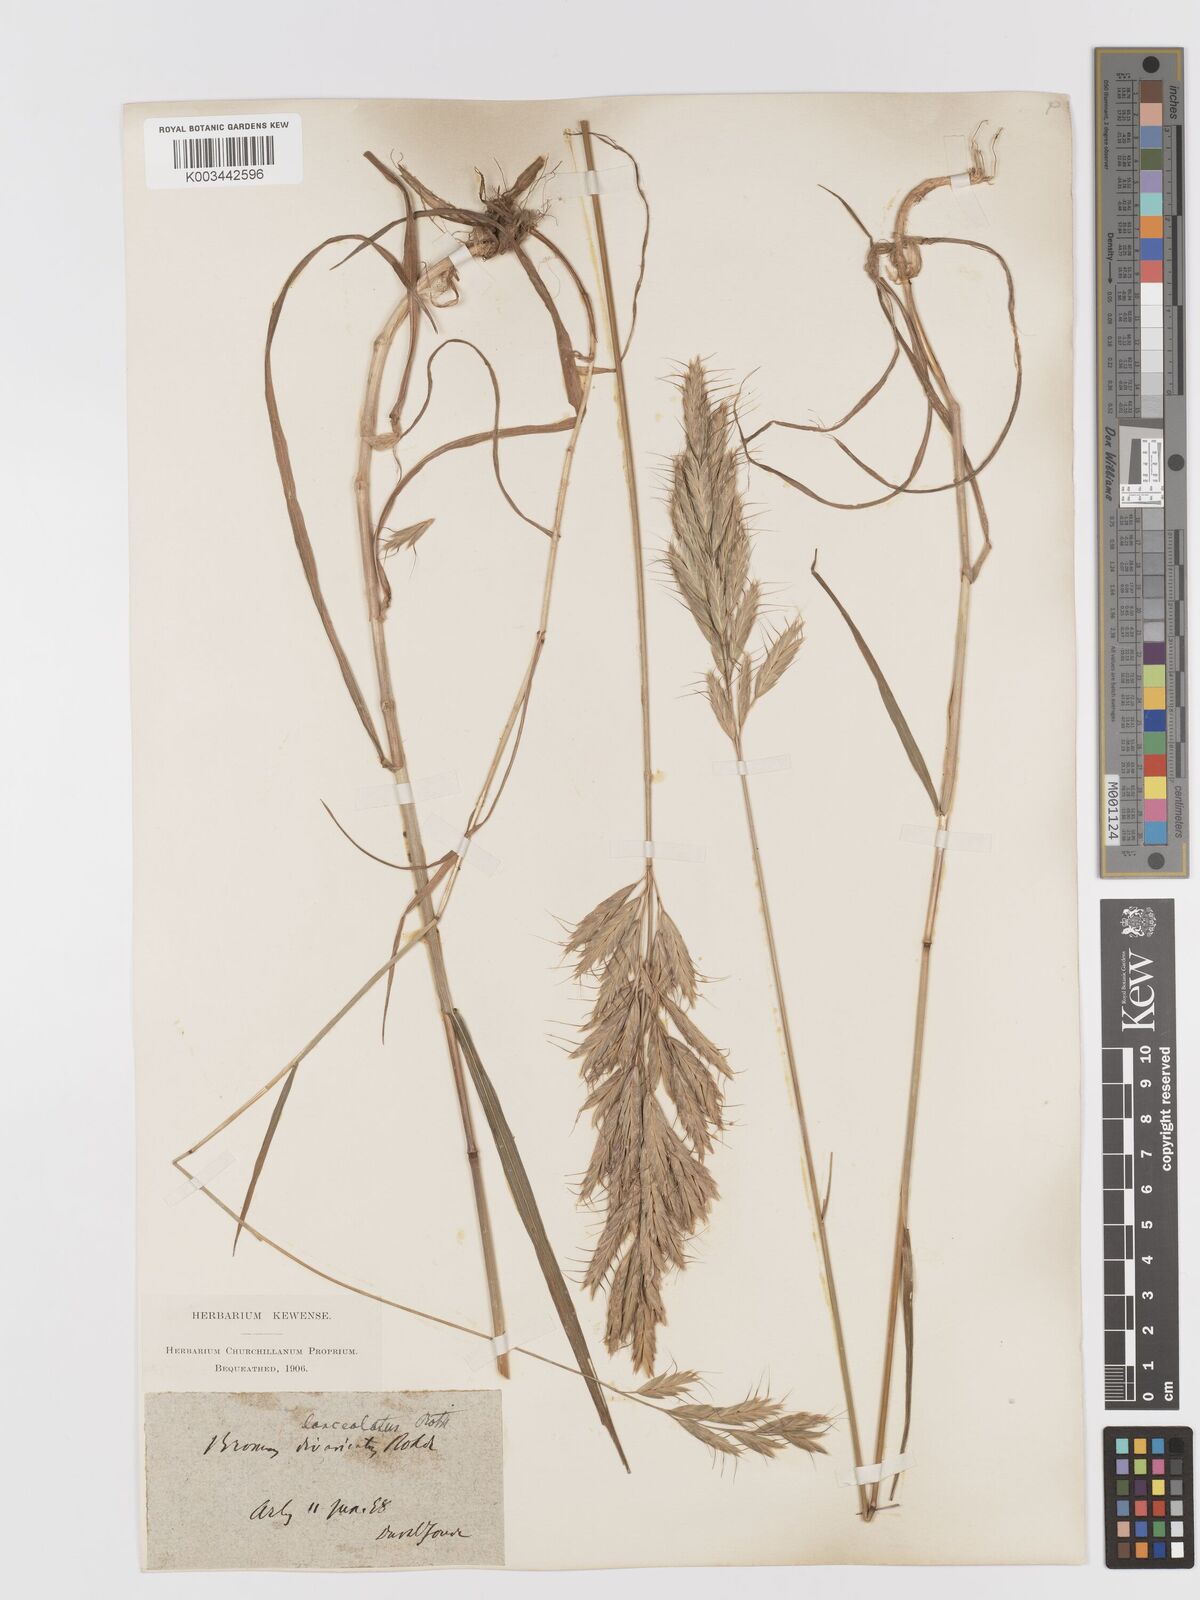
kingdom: Plantae
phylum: Tracheophyta
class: Liliopsida
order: Poales
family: Poaceae
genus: Bromus
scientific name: Bromus lanceolatus
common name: Mediterranean brome
